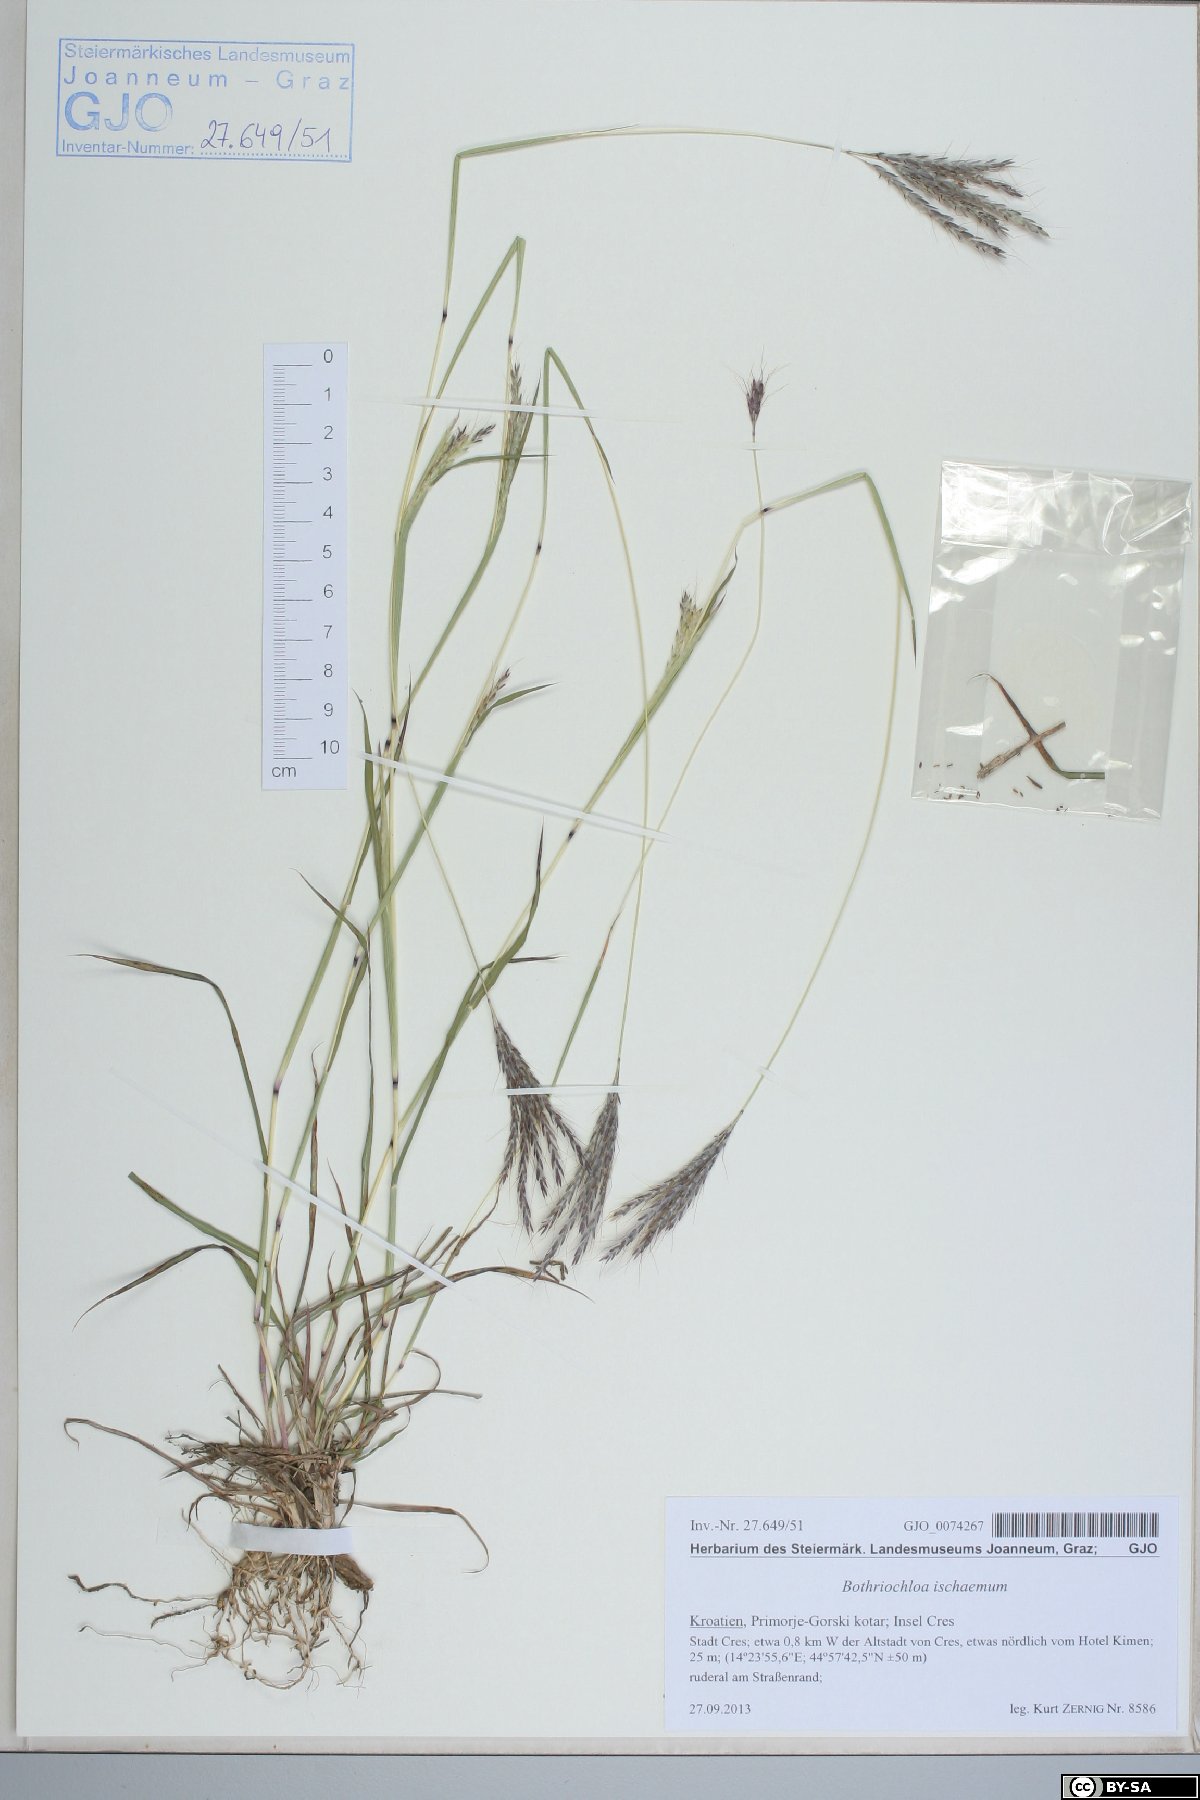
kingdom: Plantae
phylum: Tracheophyta
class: Liliopsida
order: Poales
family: Poaceae
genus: Bothriochloa
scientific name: Bothriochloa ischaemum
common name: Yellow bluestem
